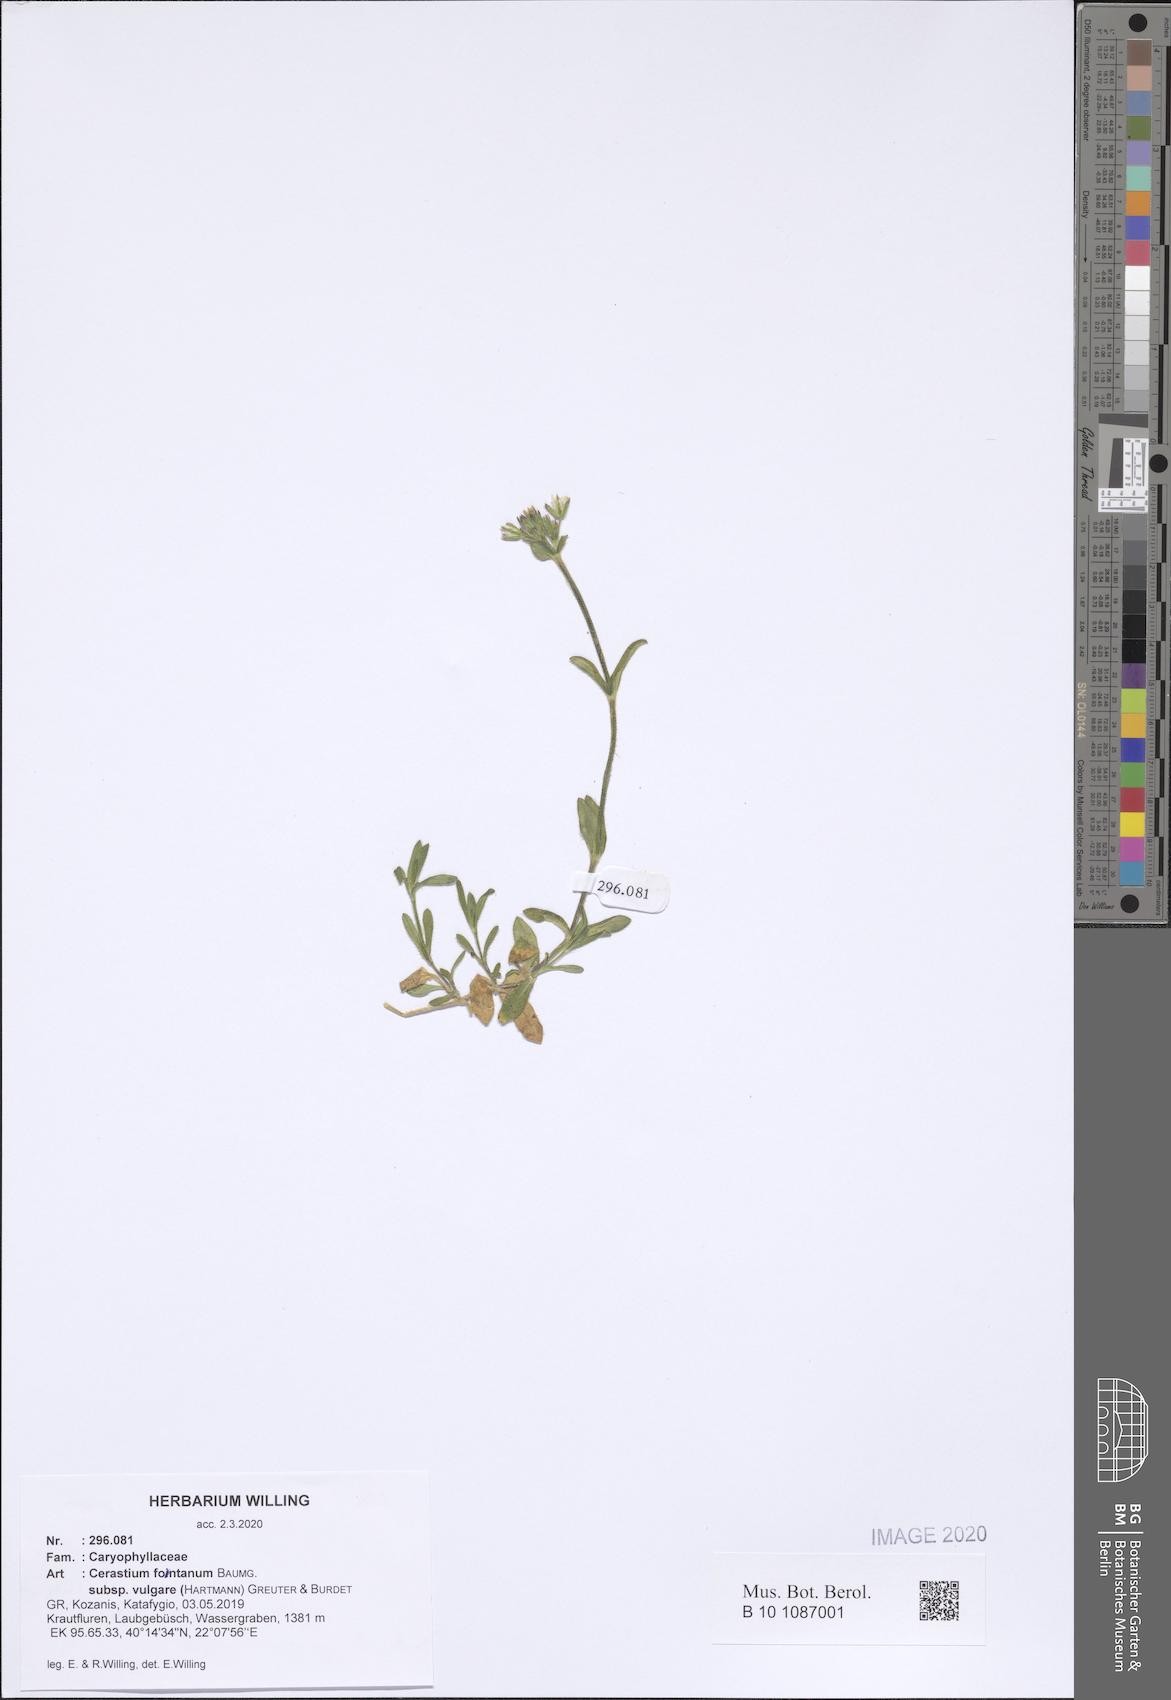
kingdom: Plantae
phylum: Tracheophyta
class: Magnoliopsida
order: Caryophyllales
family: Caryophyllaceae
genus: Cerastium
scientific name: Cerastium holosteoides
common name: Big chickweed
